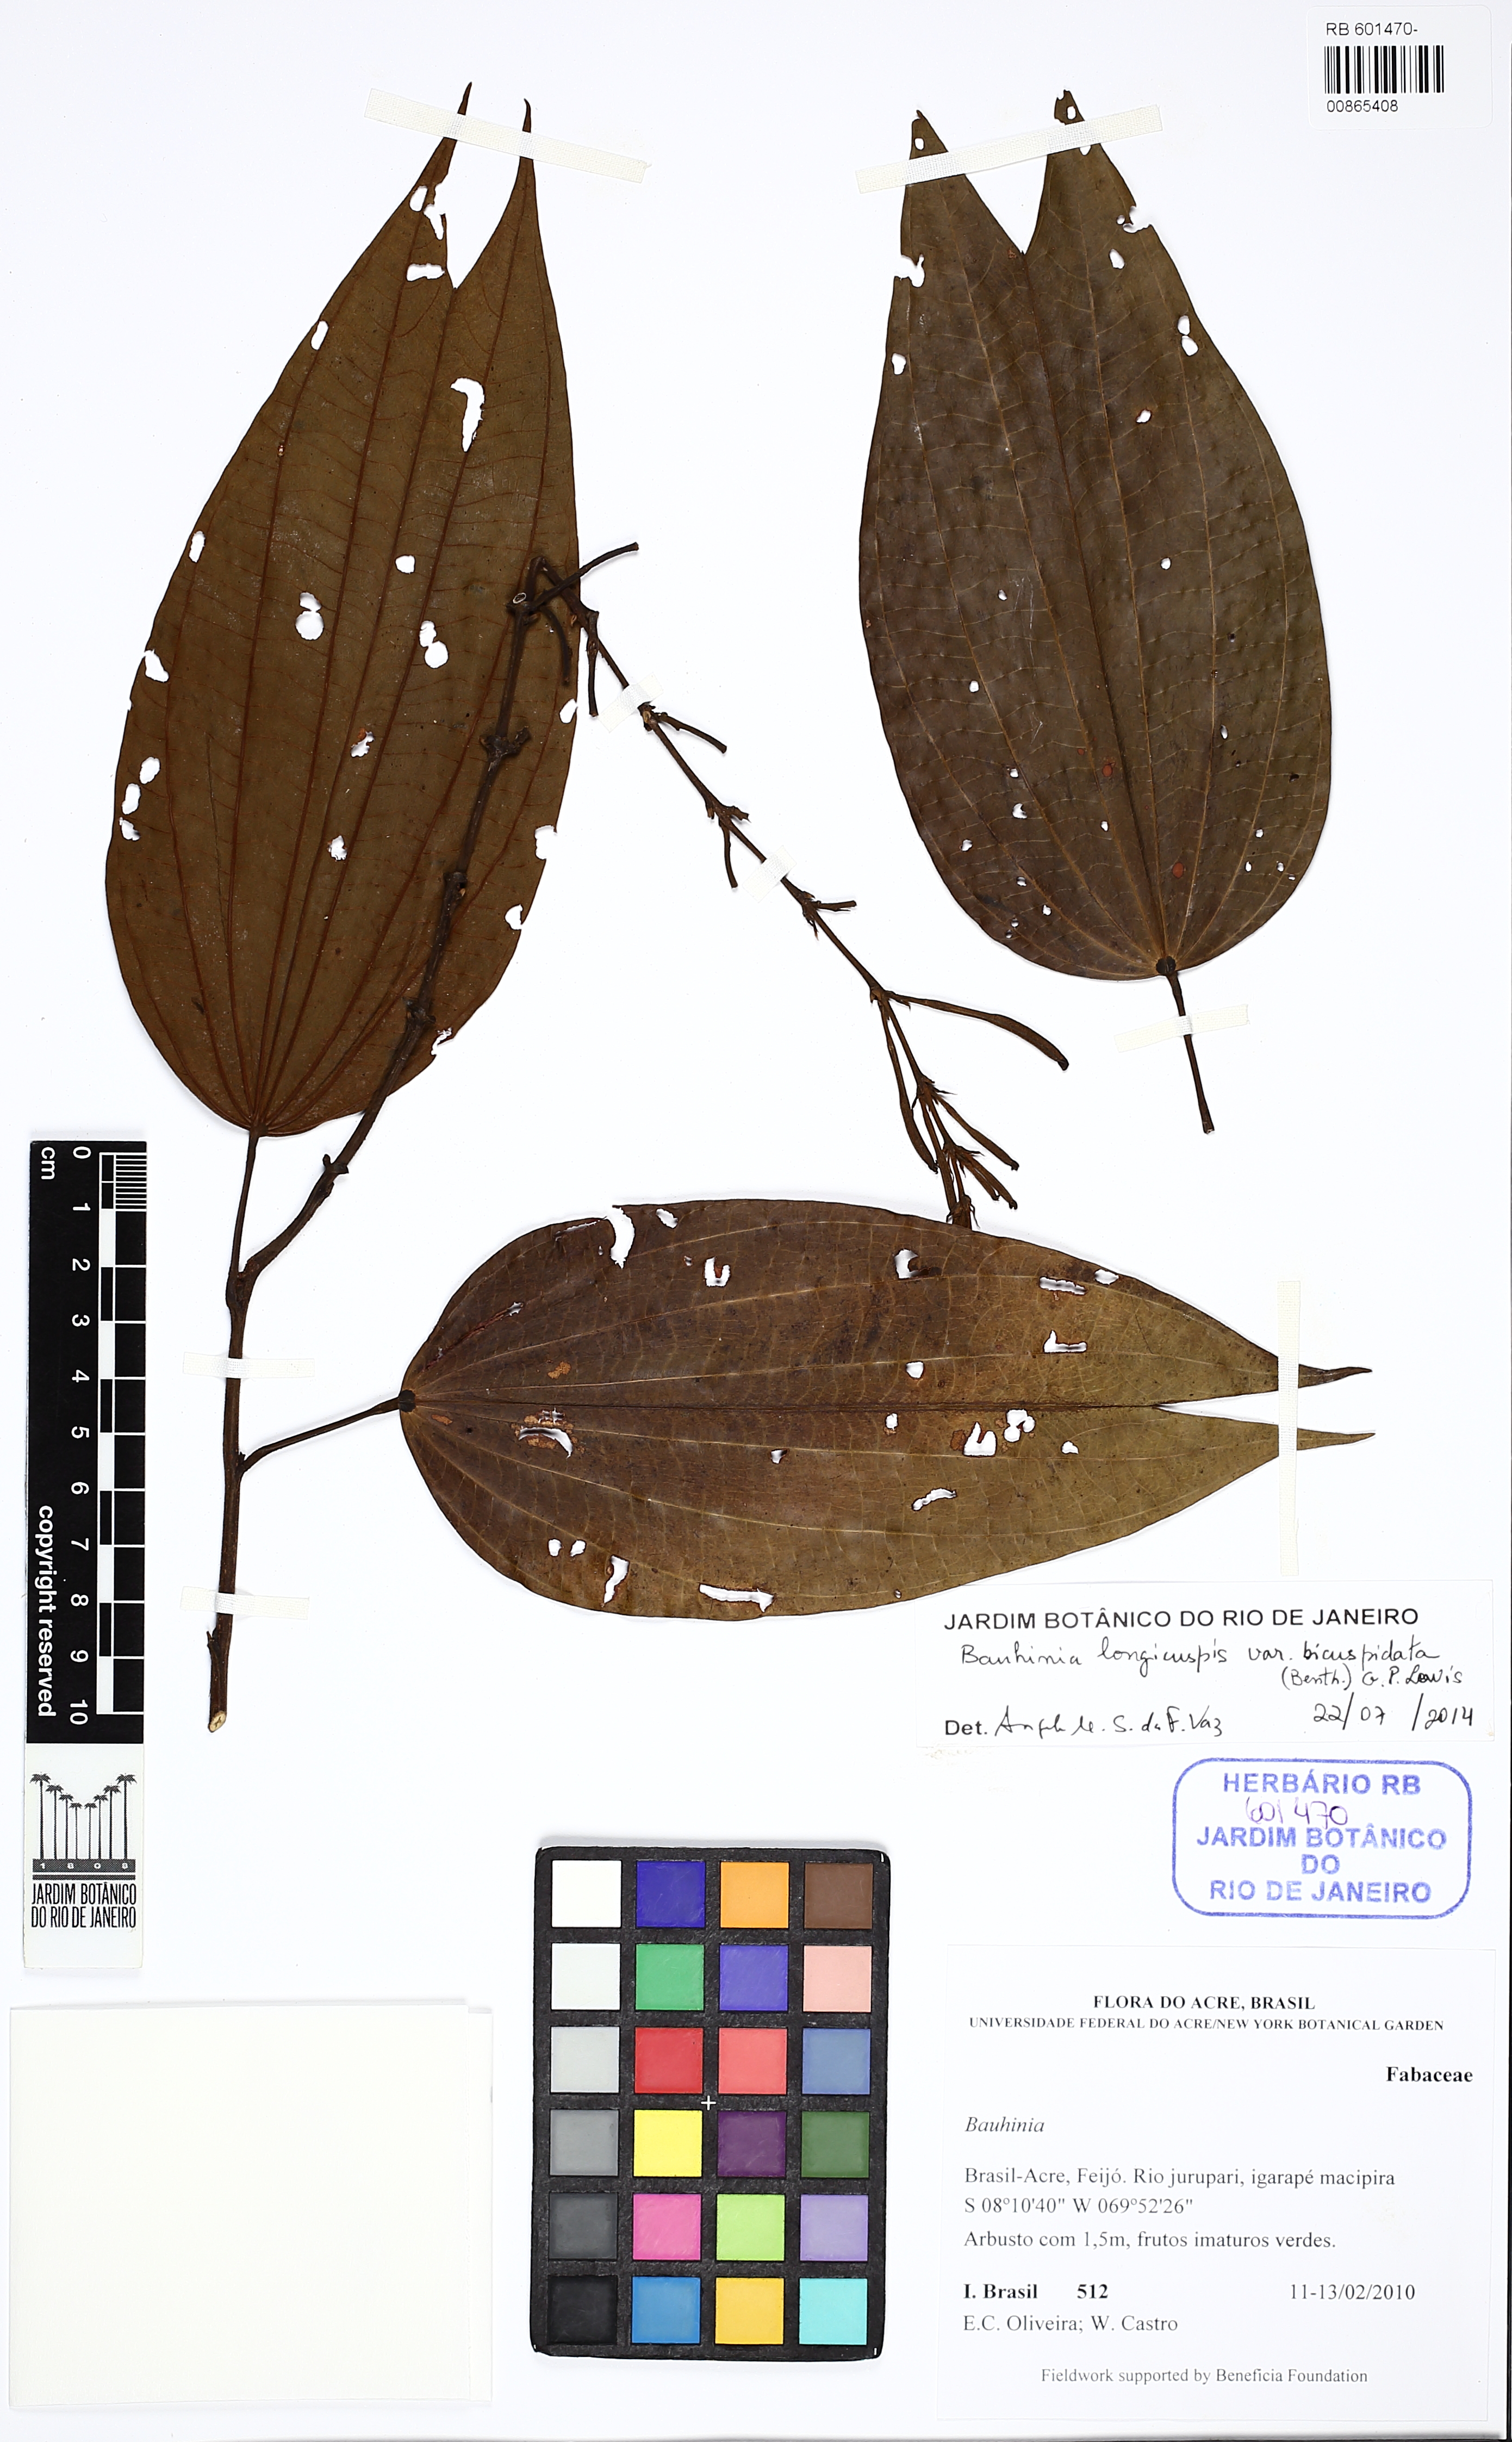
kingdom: Plantae
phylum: Tracheophyta
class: Magnoliopsida
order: Fabales
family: Fabaceae
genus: Bauhinia
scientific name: Bauhinia longicuspis
